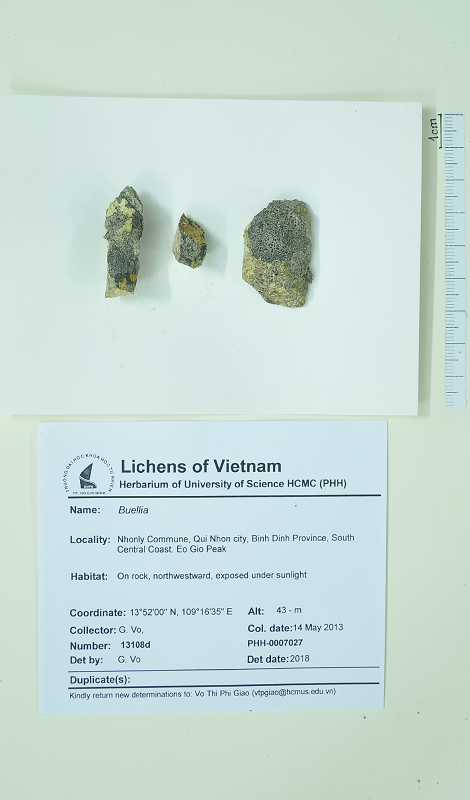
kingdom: Fungi
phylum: Ascomycota
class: Lecanoromycetes
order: Caliciales
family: Caliciaceae
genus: Buellia
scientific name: Buellia
